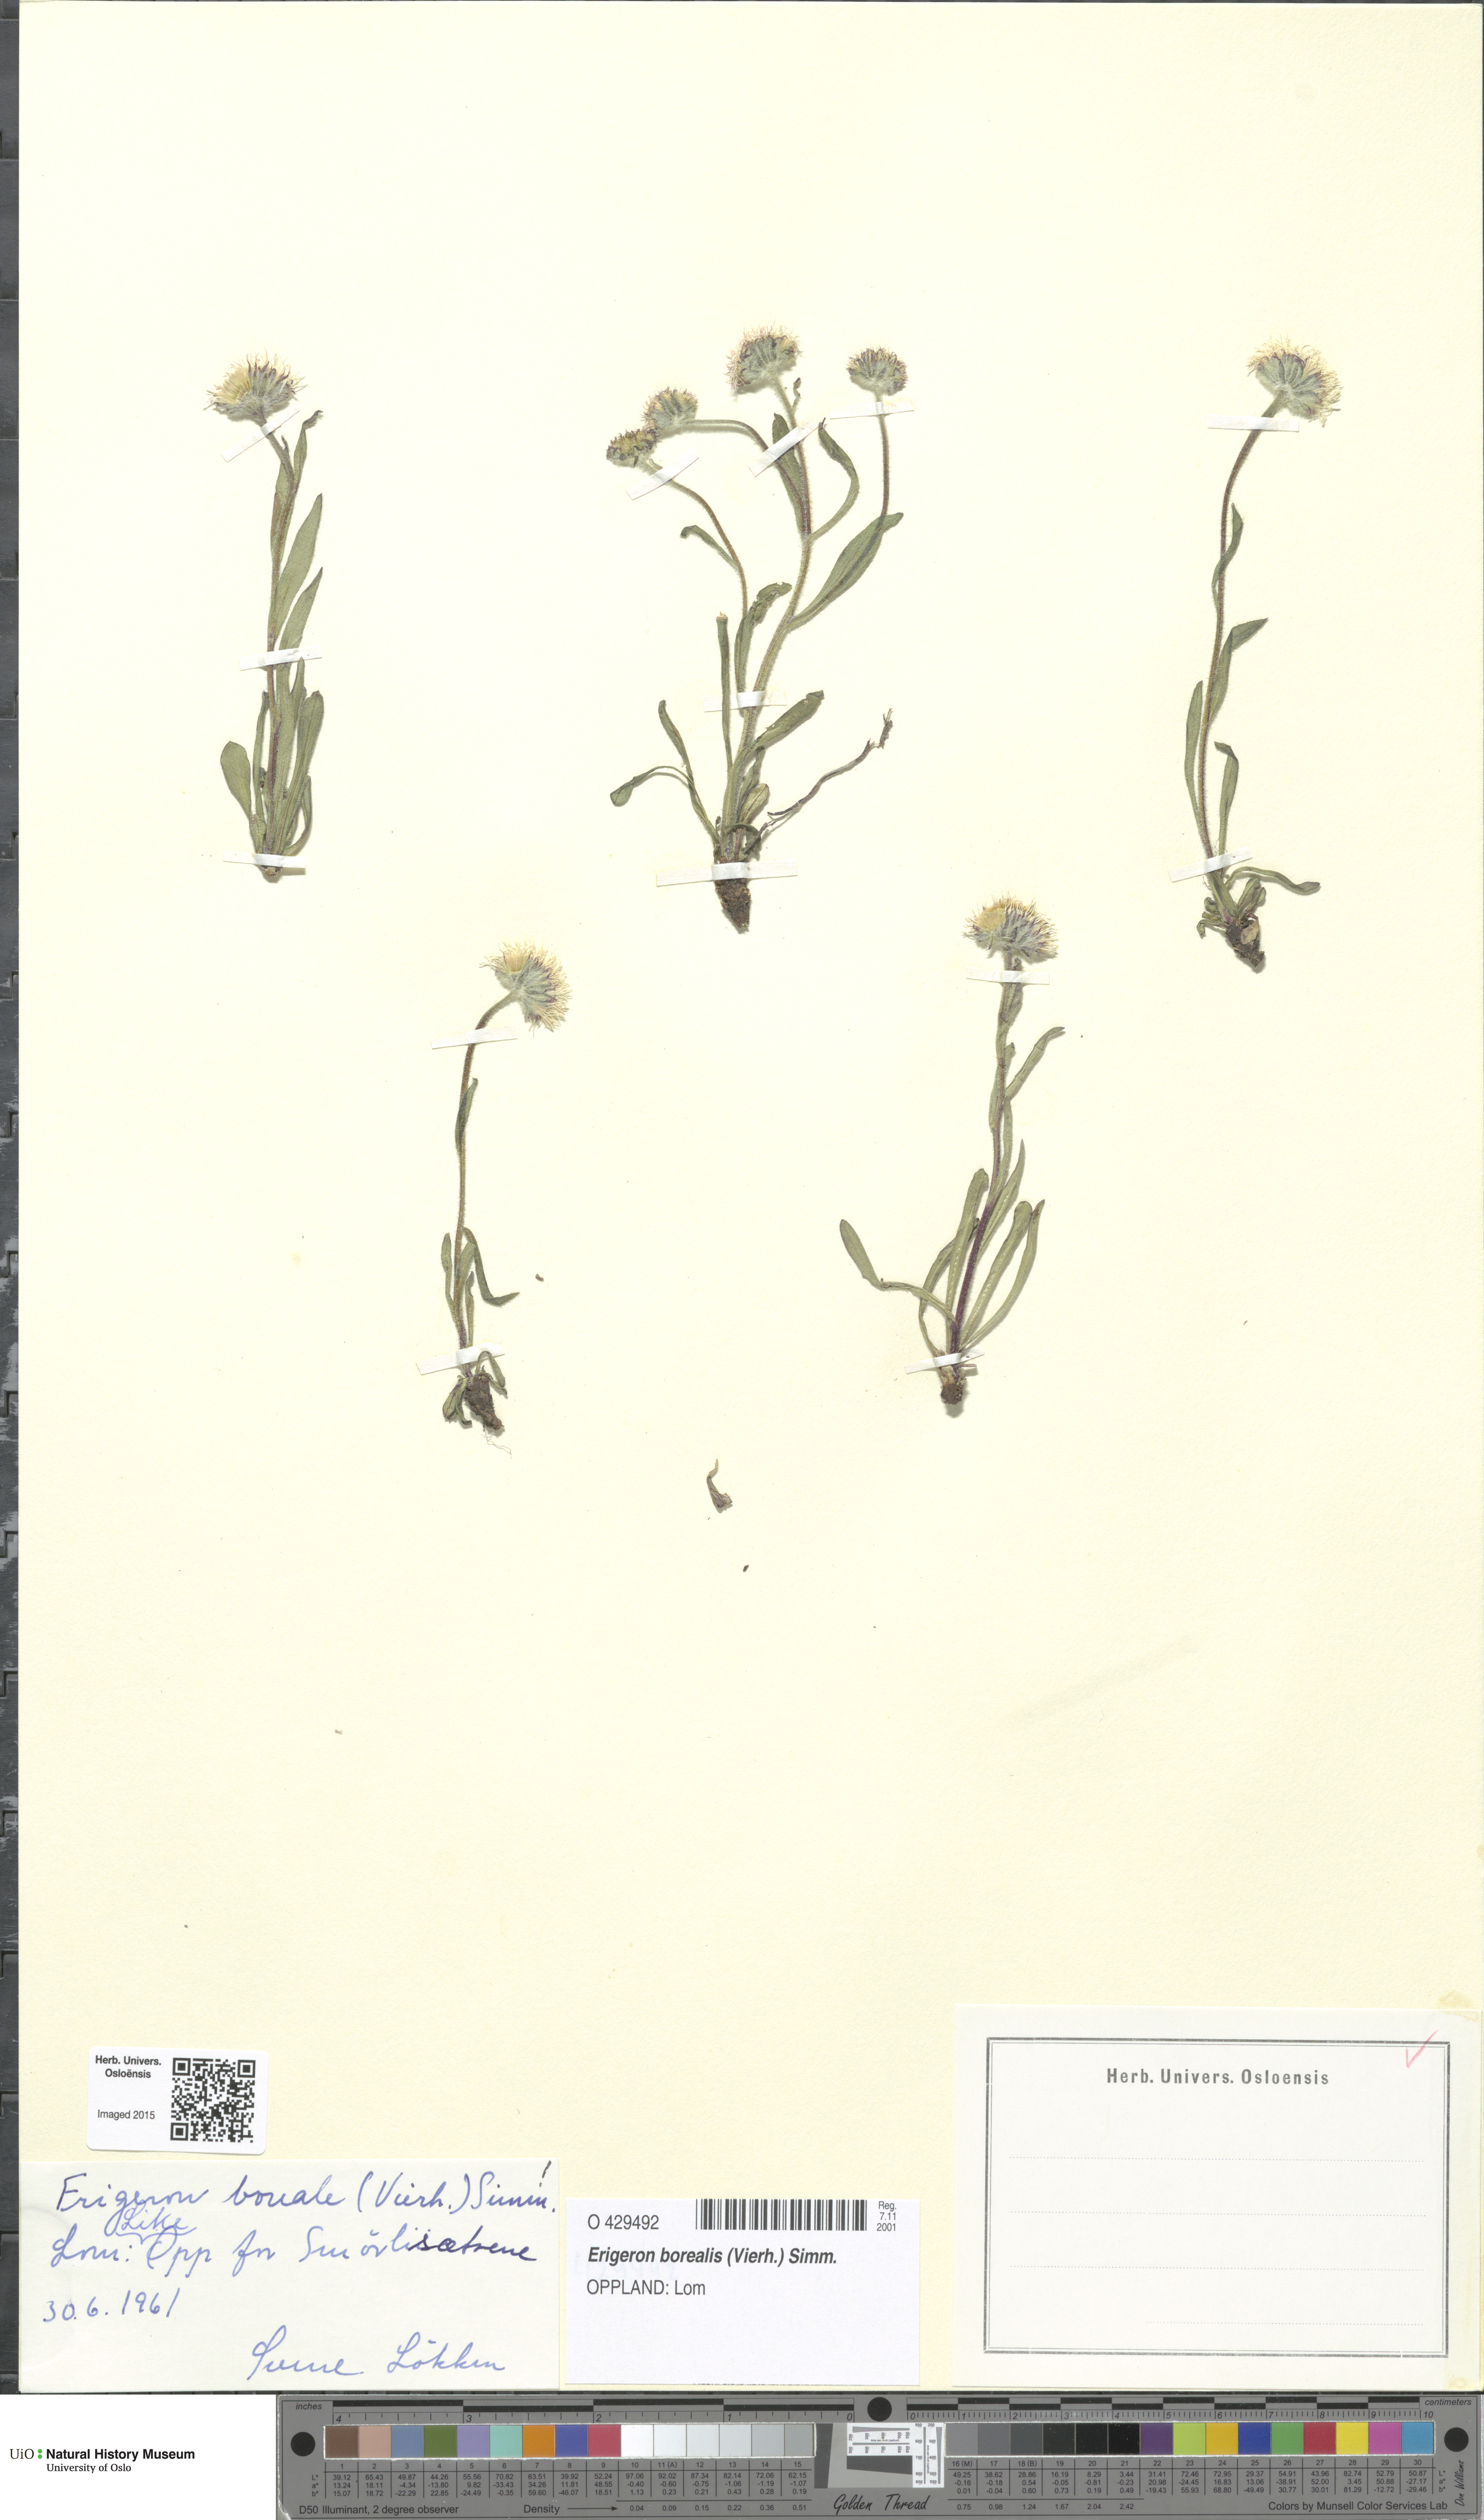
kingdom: Plantae
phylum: Tracheophyta
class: Magnoliopsida
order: Asterales
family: Asteraceae
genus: Erigeron
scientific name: Erigeron borealis
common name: Alpine fleabane
